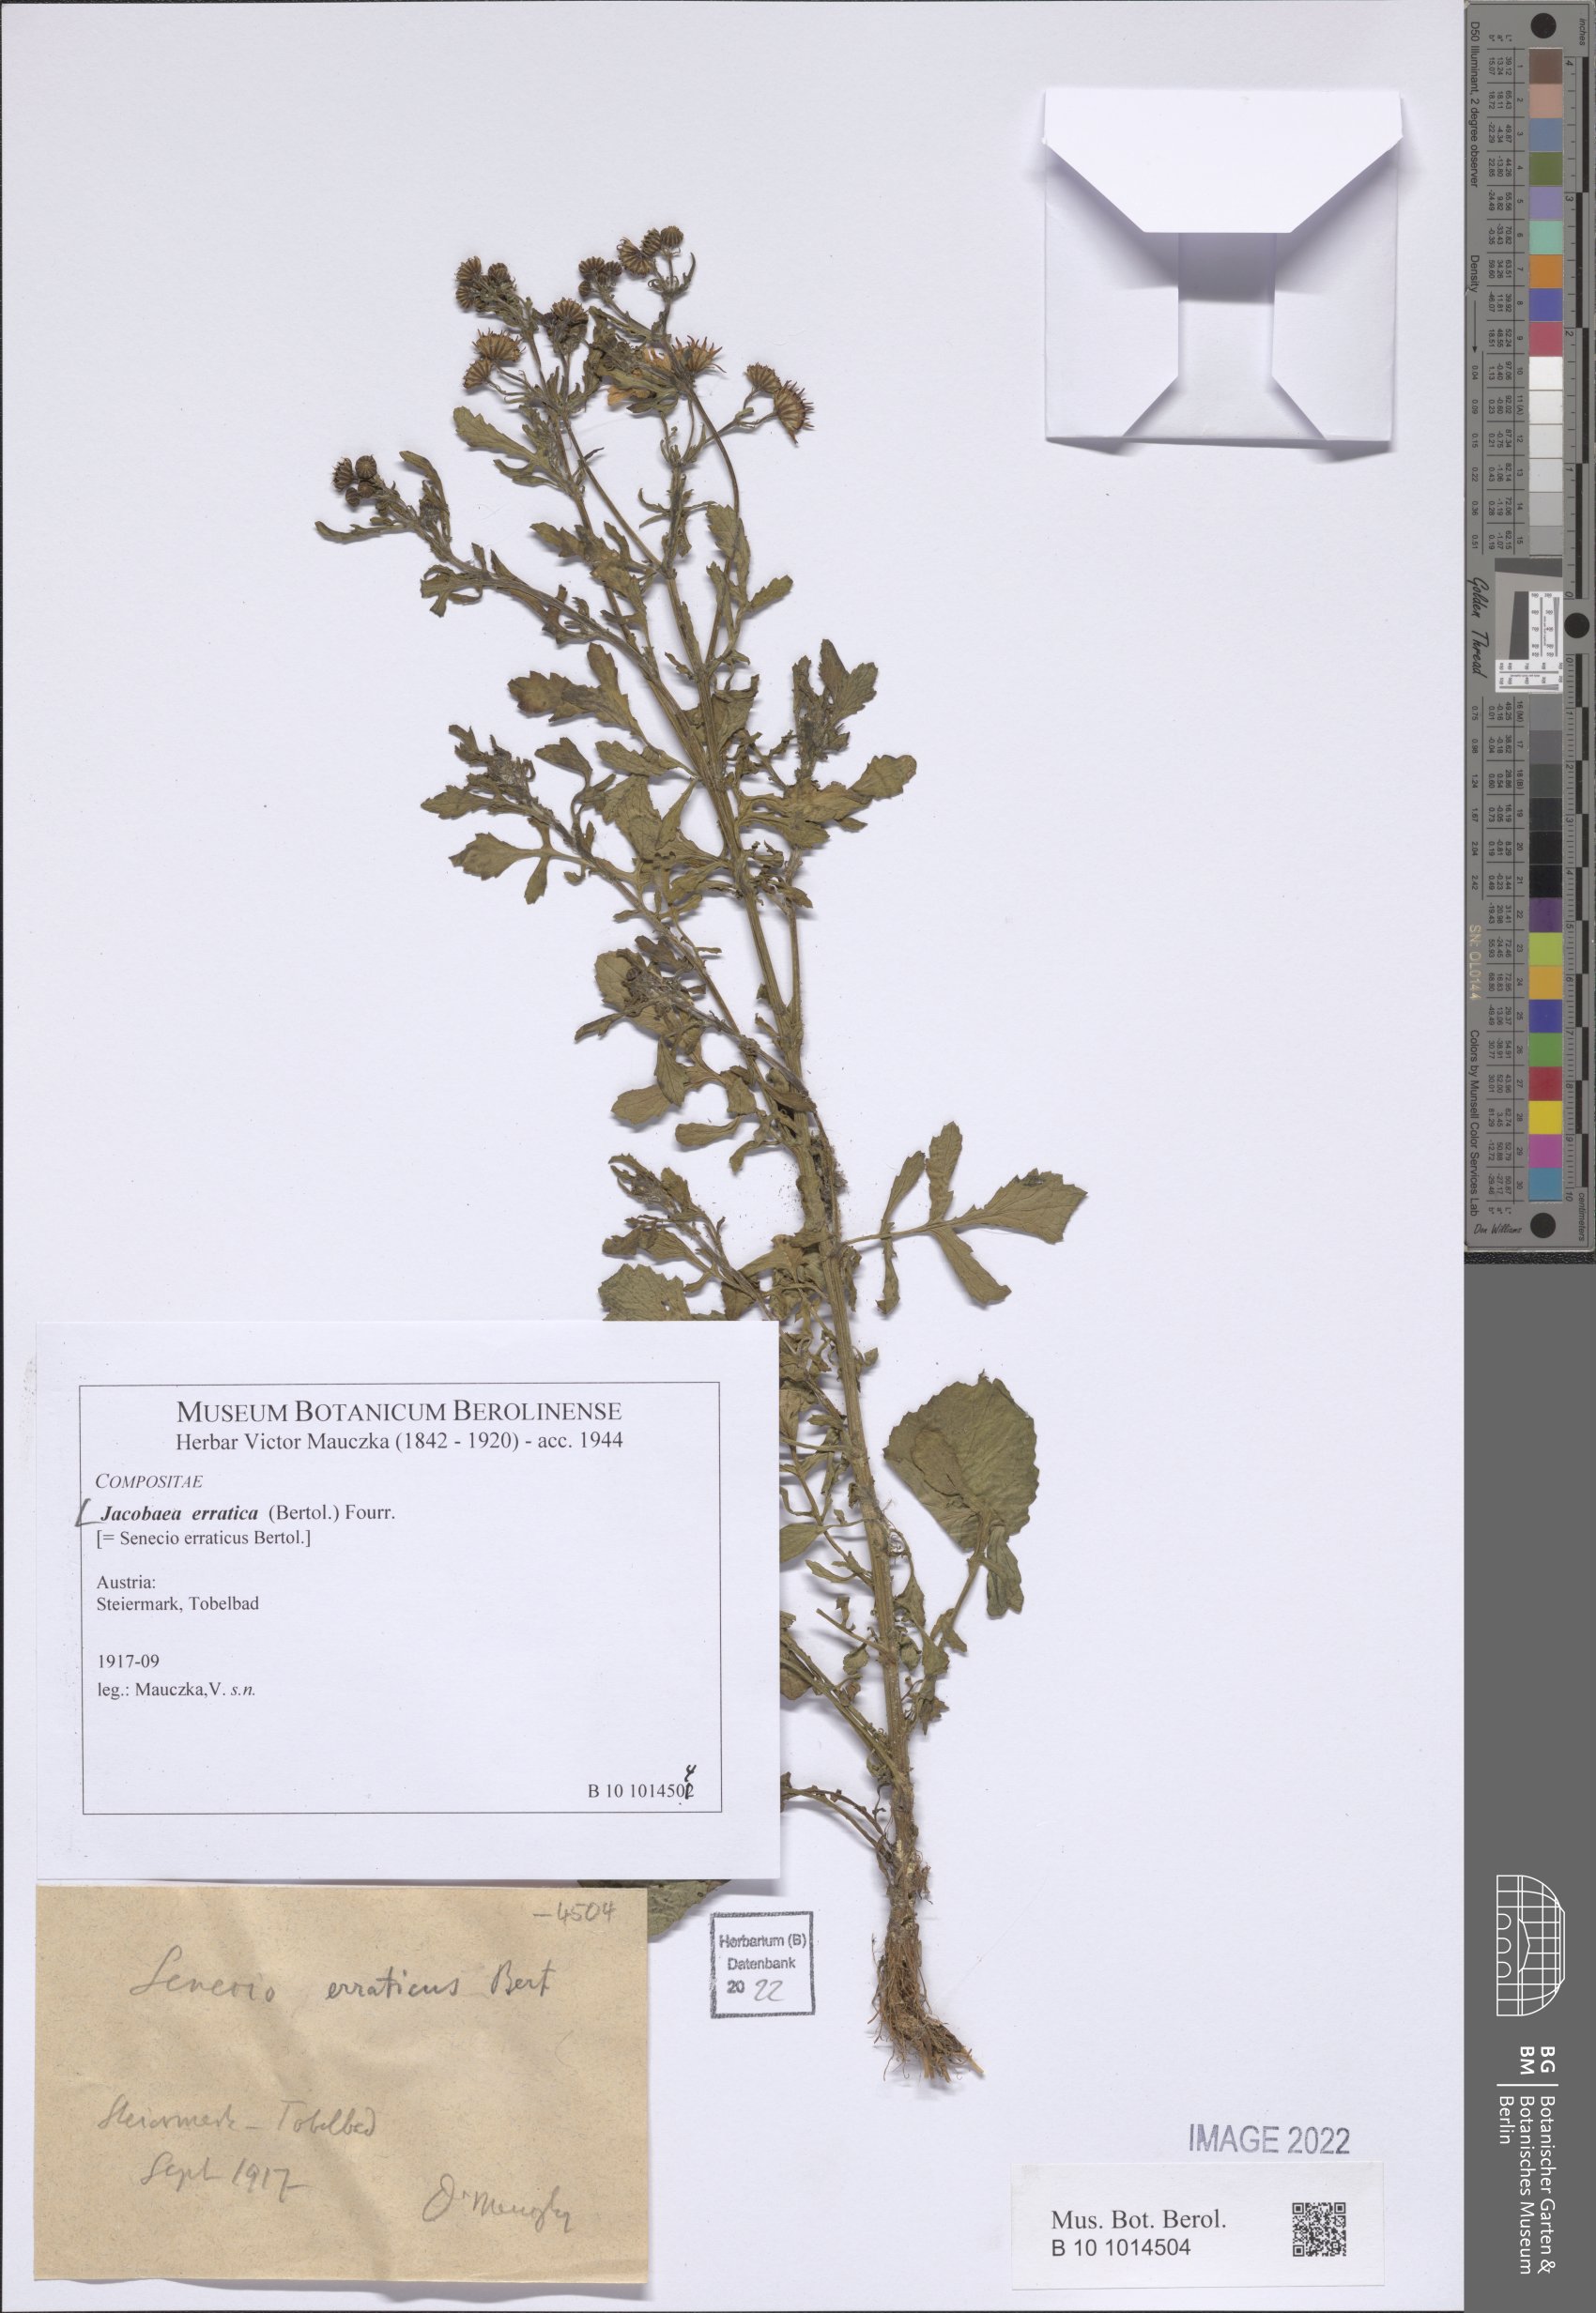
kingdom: Plantae
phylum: Tracheophyta
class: Magnoliopsida
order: Asterales
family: Asteraceae
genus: Jacobaea
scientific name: Jacobaea erratica
